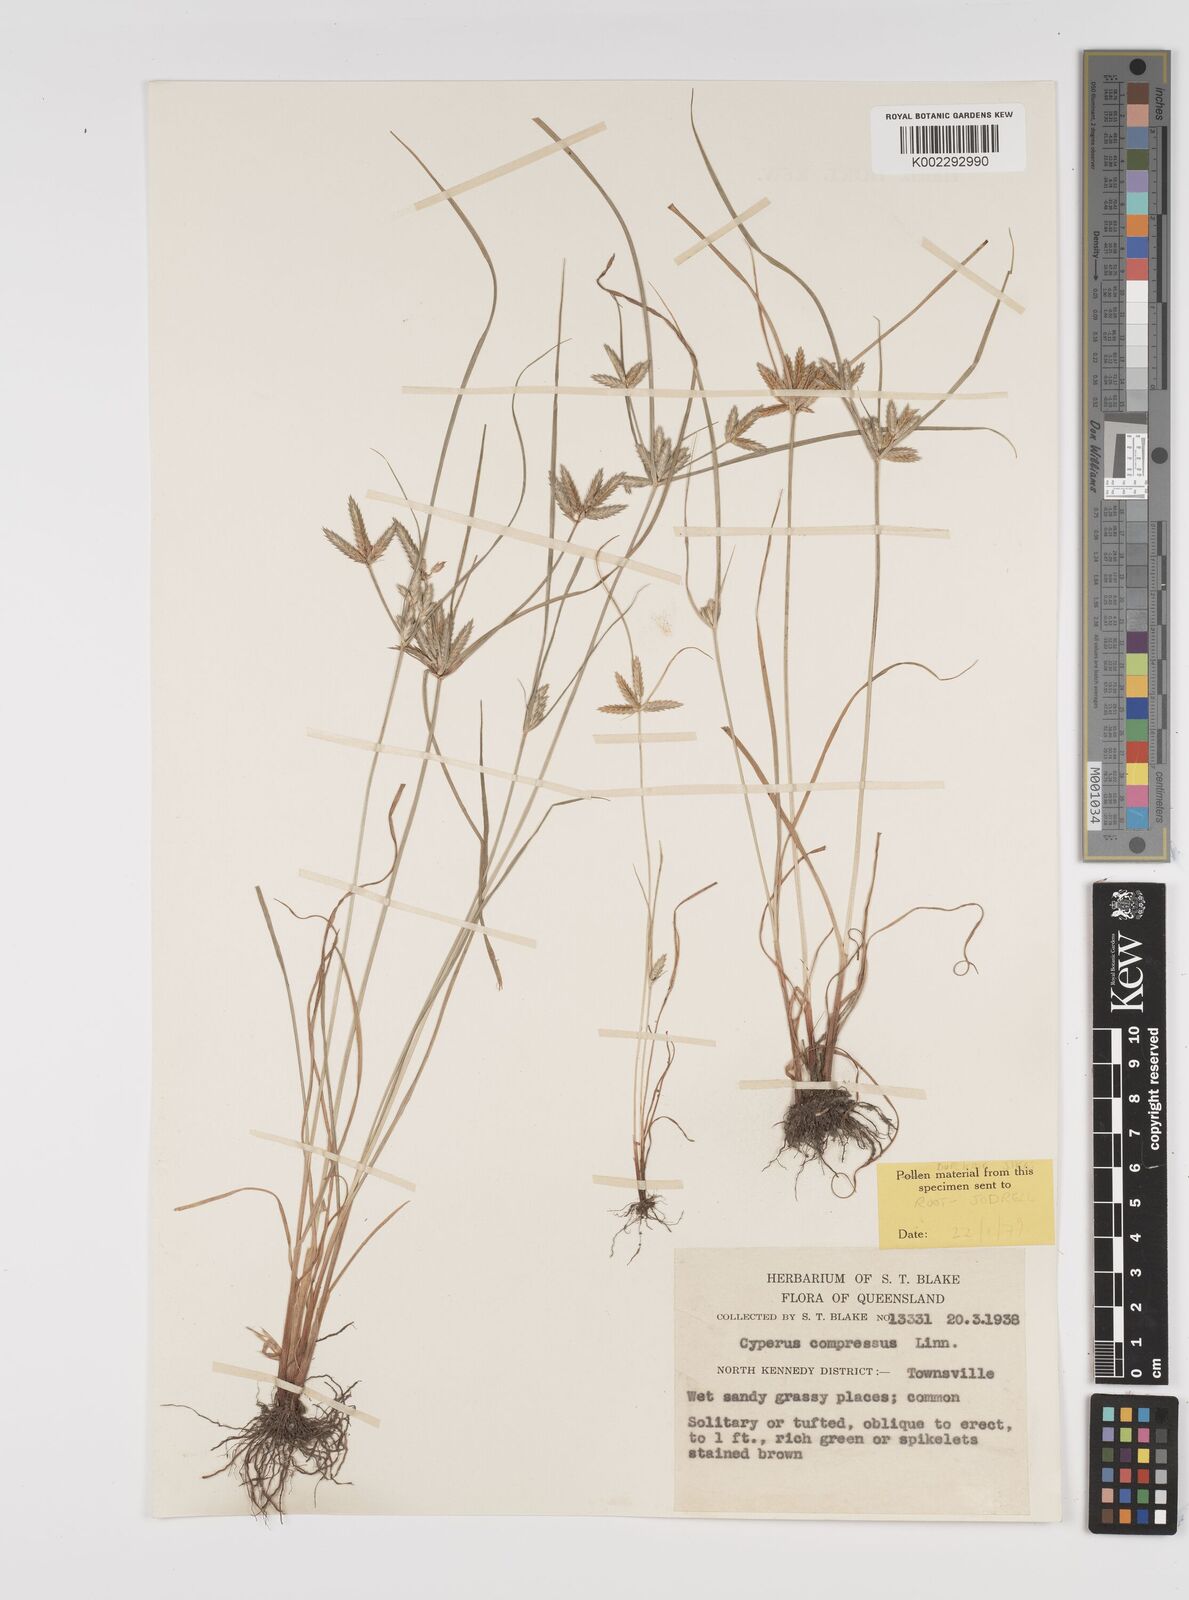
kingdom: Plantae
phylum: Tracheophyta
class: Liliopsida
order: Poales
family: Cyperaceae
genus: Cyperus
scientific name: Cyperus compressus
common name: Poorland flatsedge
